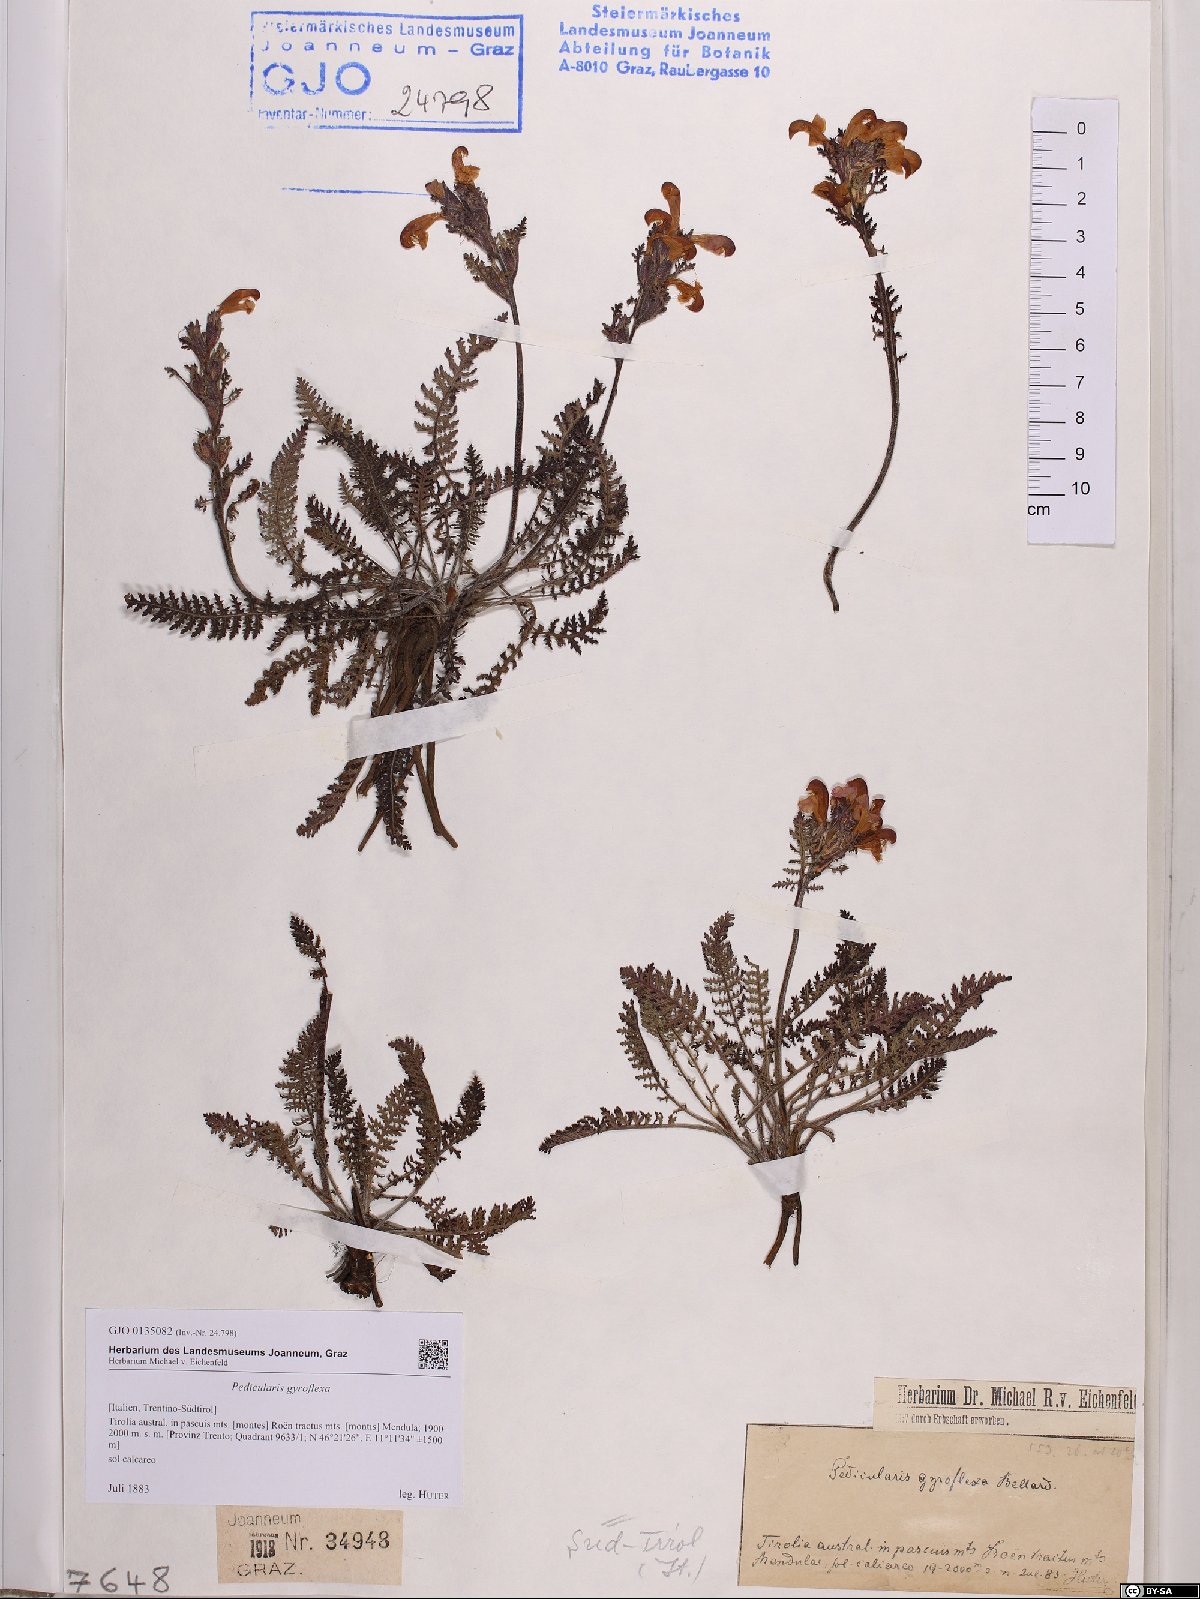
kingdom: Plantae
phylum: Tracheophyta
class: Magnoliopsida
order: Lamiales
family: Orobanchaceae
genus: Pedicularis
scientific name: Pedicularis gyroflexa
